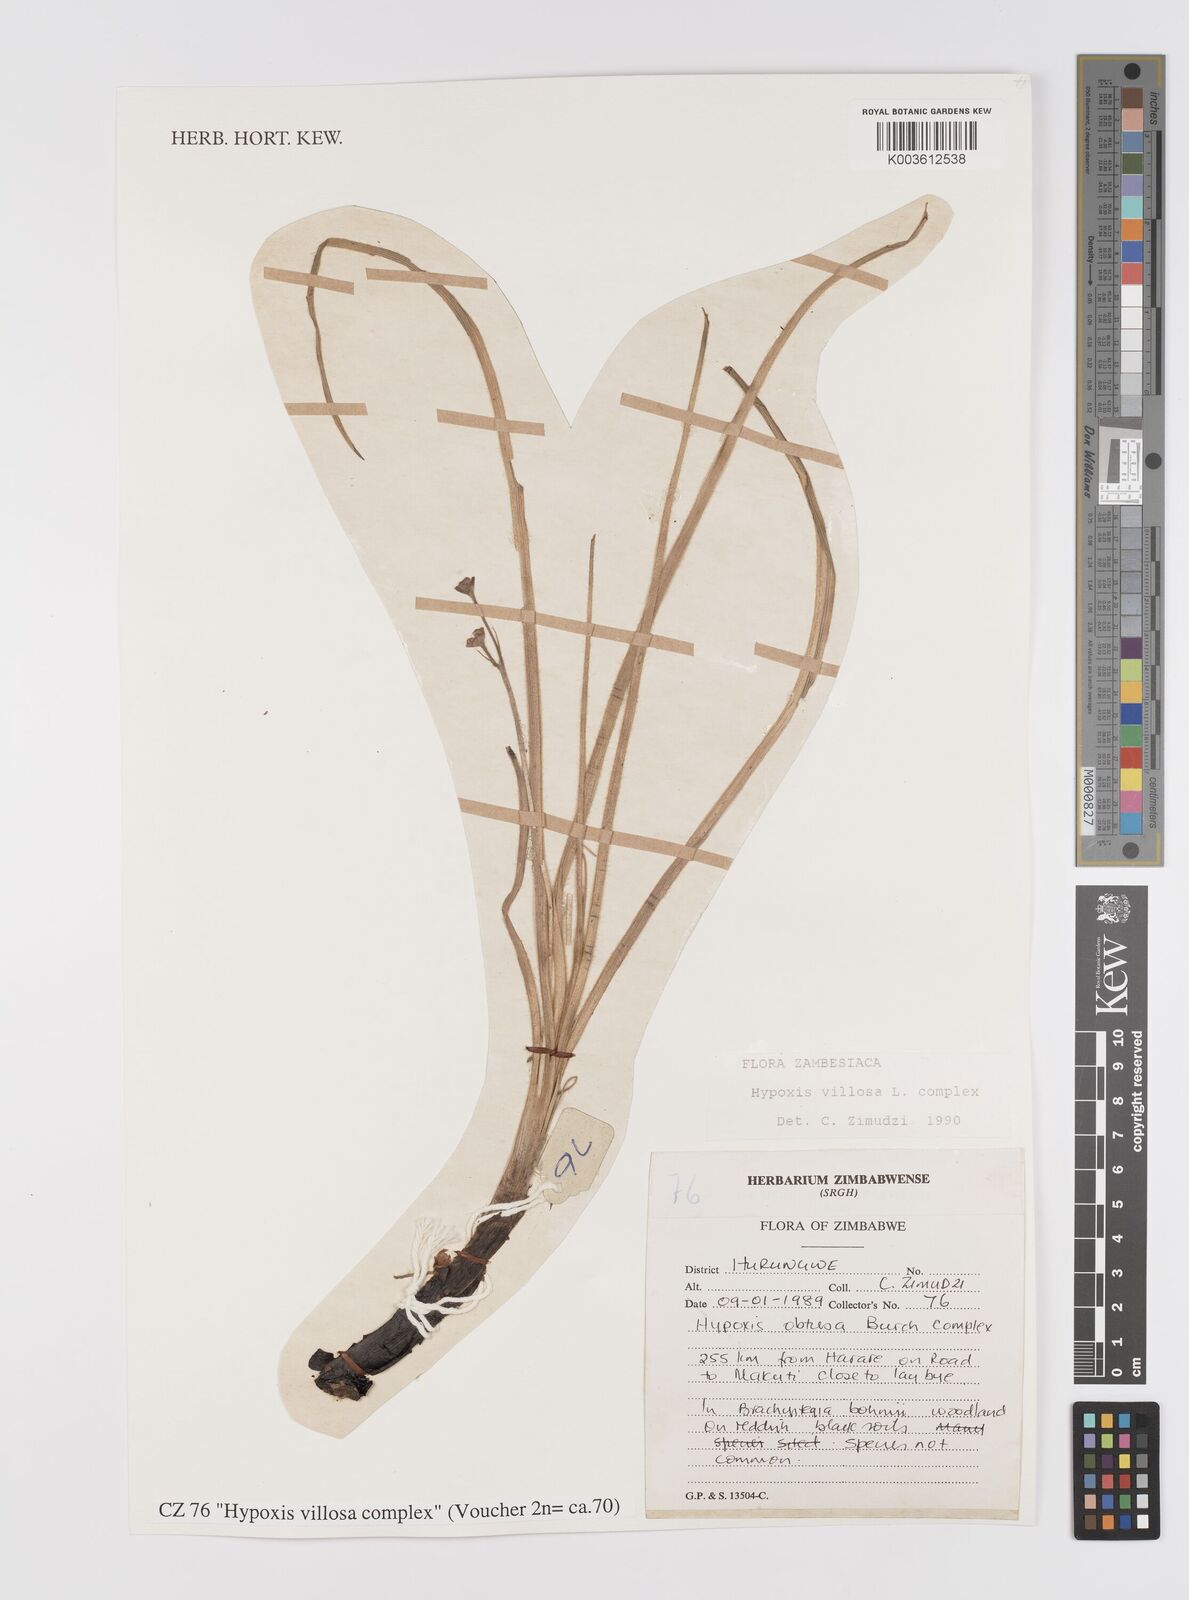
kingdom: Plantae
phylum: Tracheophyta
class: Liliopsida
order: Asparagales
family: Hypoxidaceae
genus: Hypoxis
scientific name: Hypoxis villosa
